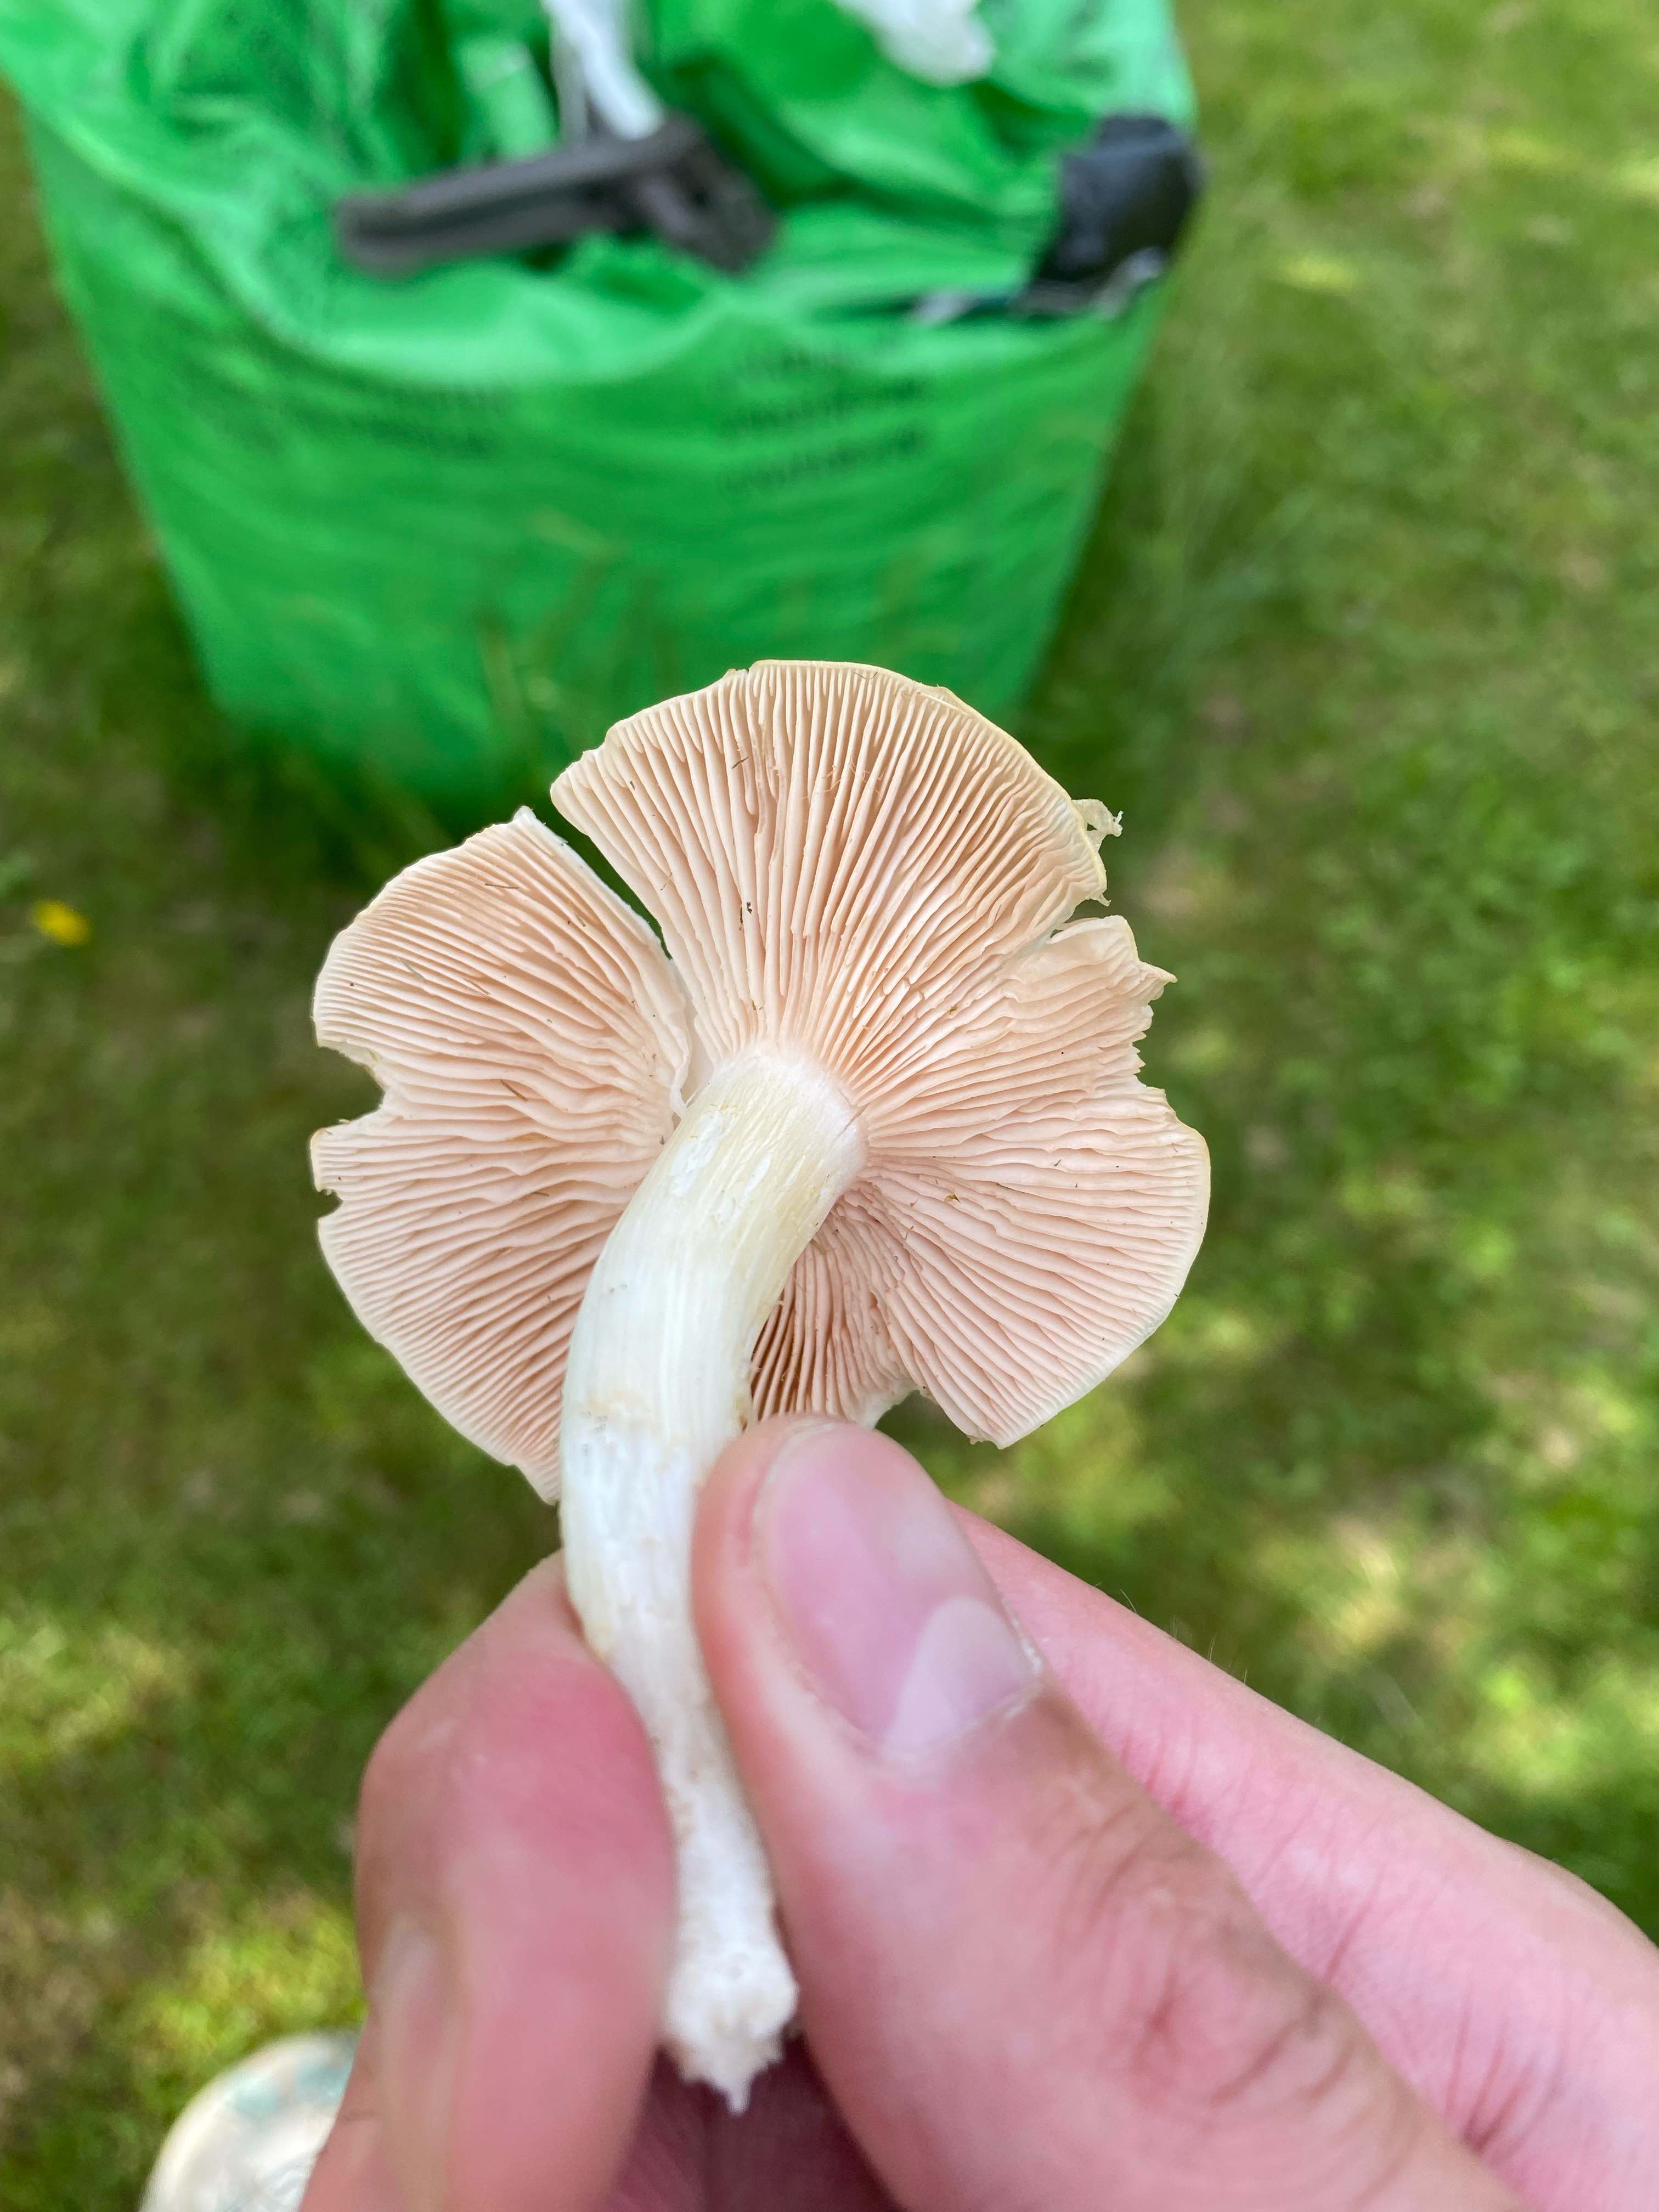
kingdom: Fungi
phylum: Basidiomycota
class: Agaricomycetes
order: Agaricales
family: Entolomataceae
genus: Entoloma
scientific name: Entoloma
